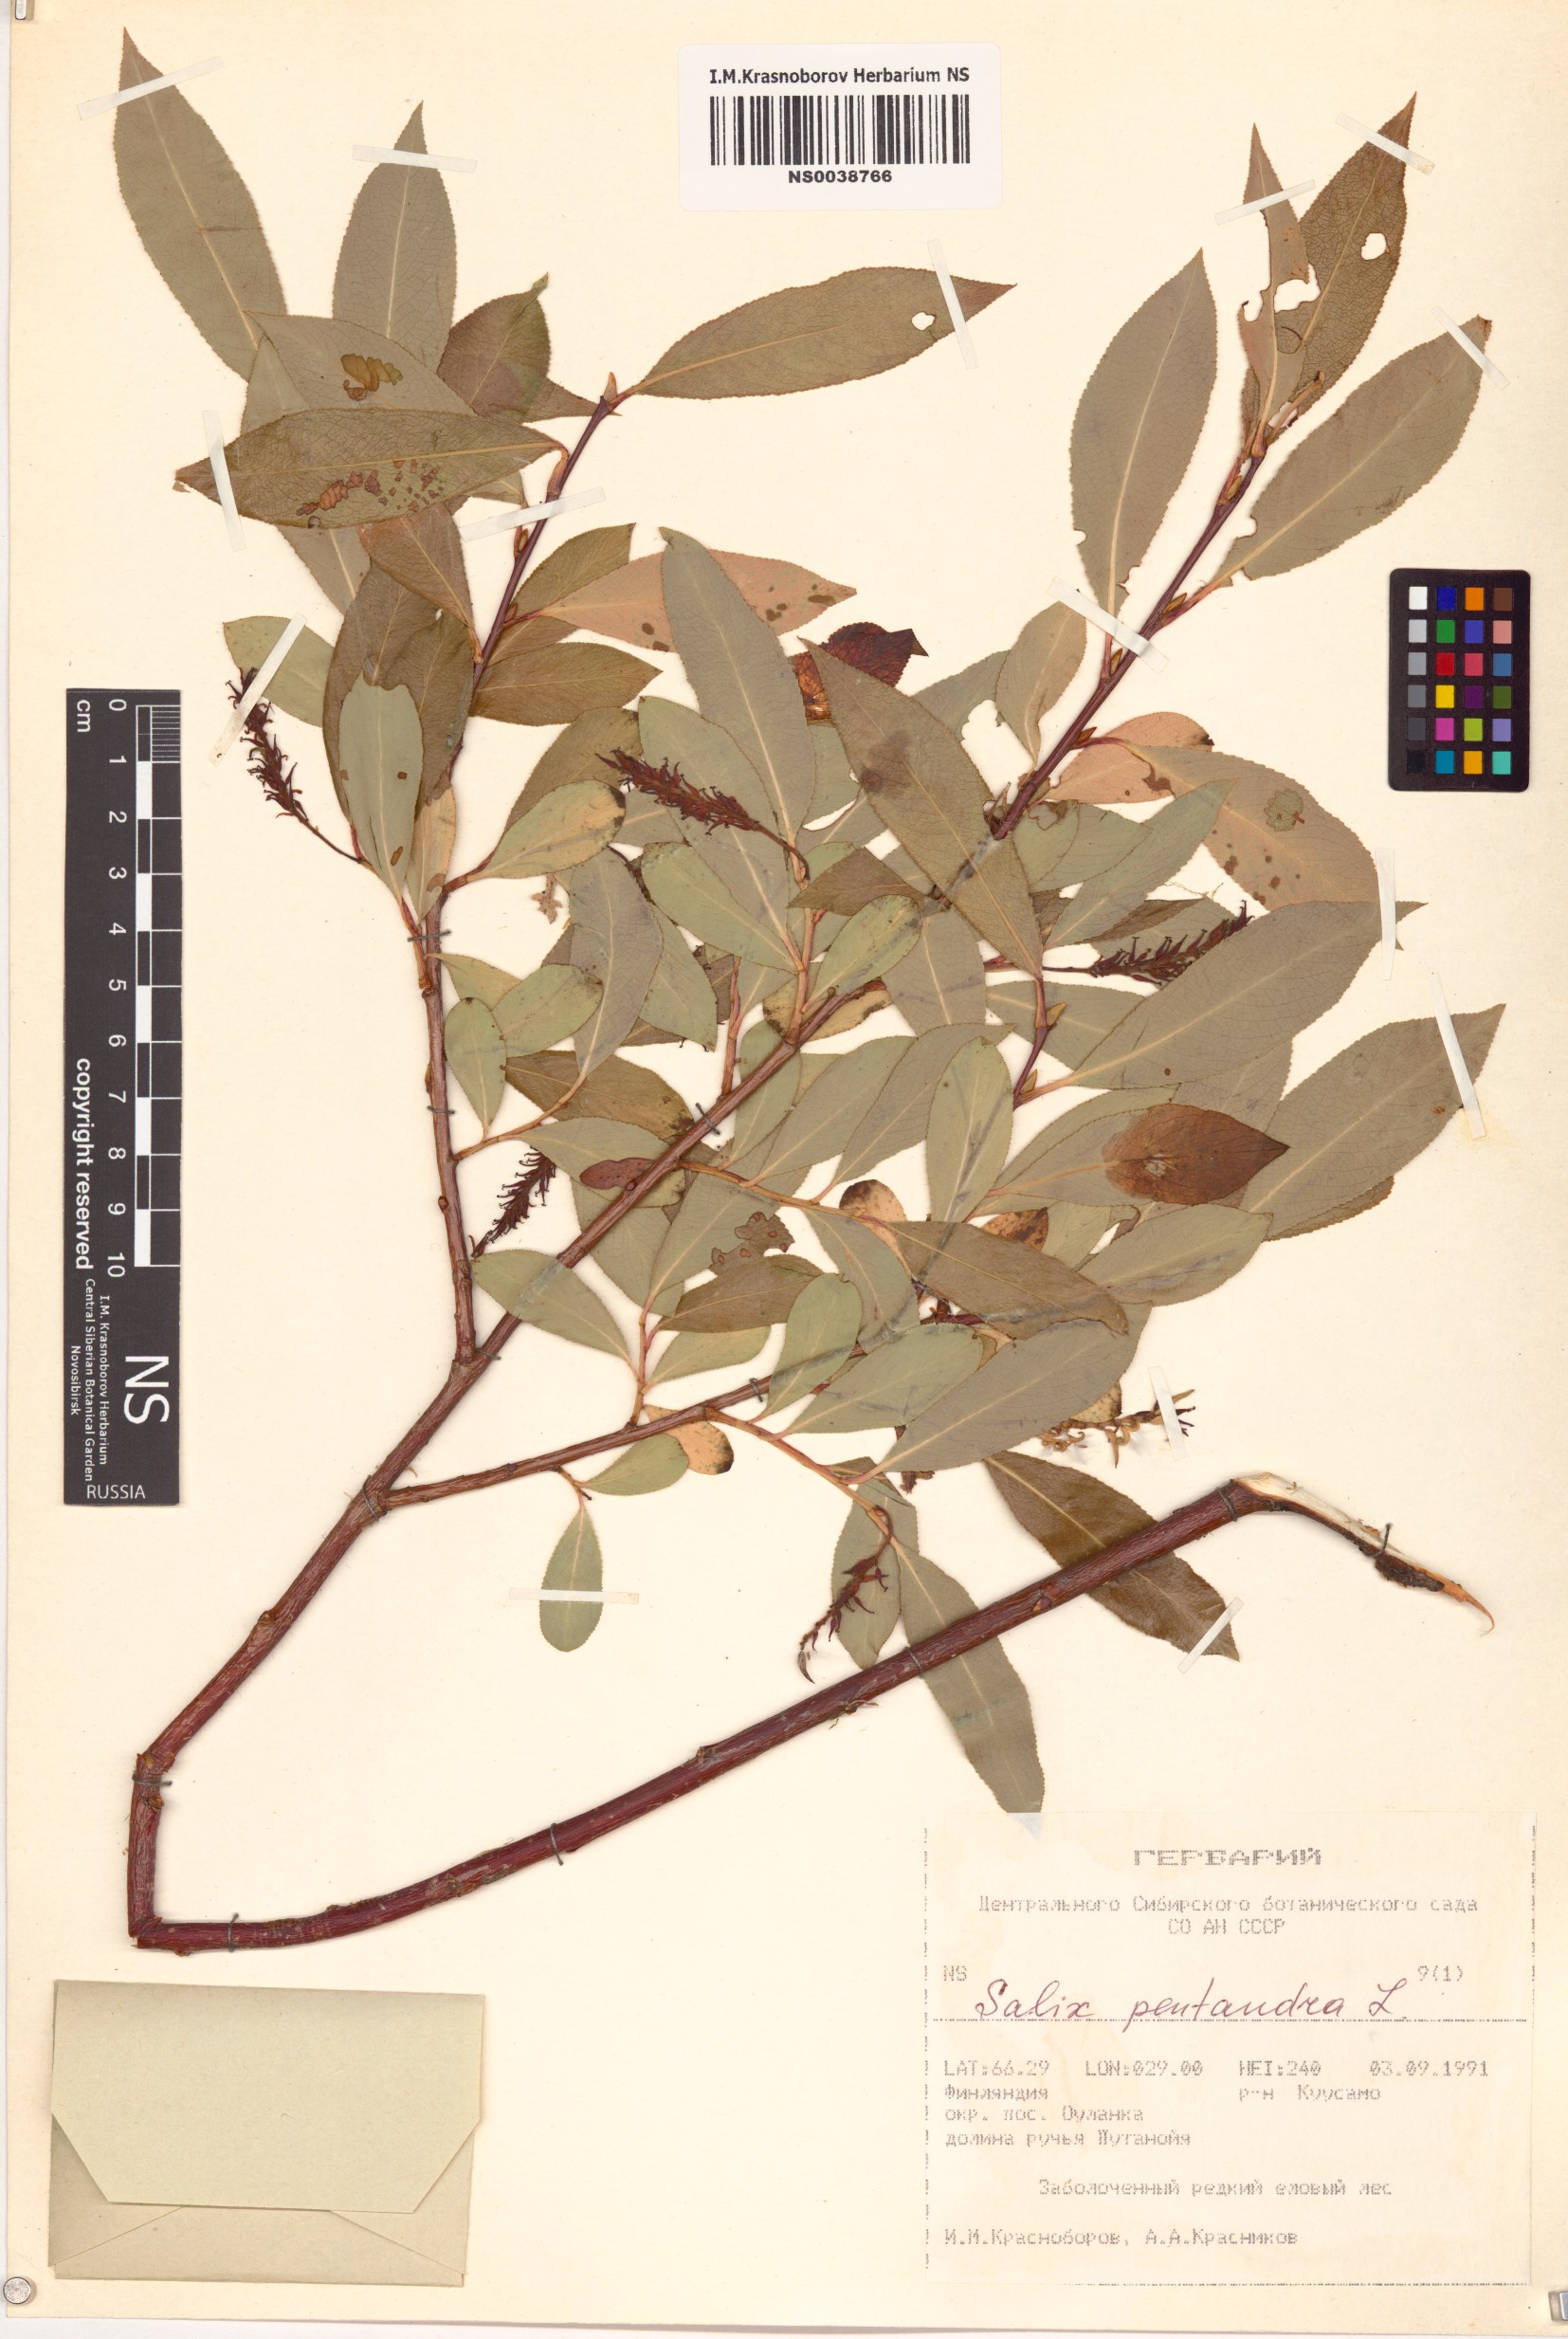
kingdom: Plantae
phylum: Tracheophyta
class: Magnoliopsida
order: Malpighiales
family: Salicaceae
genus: Salix
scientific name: Salix pentandra
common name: Bay willow
